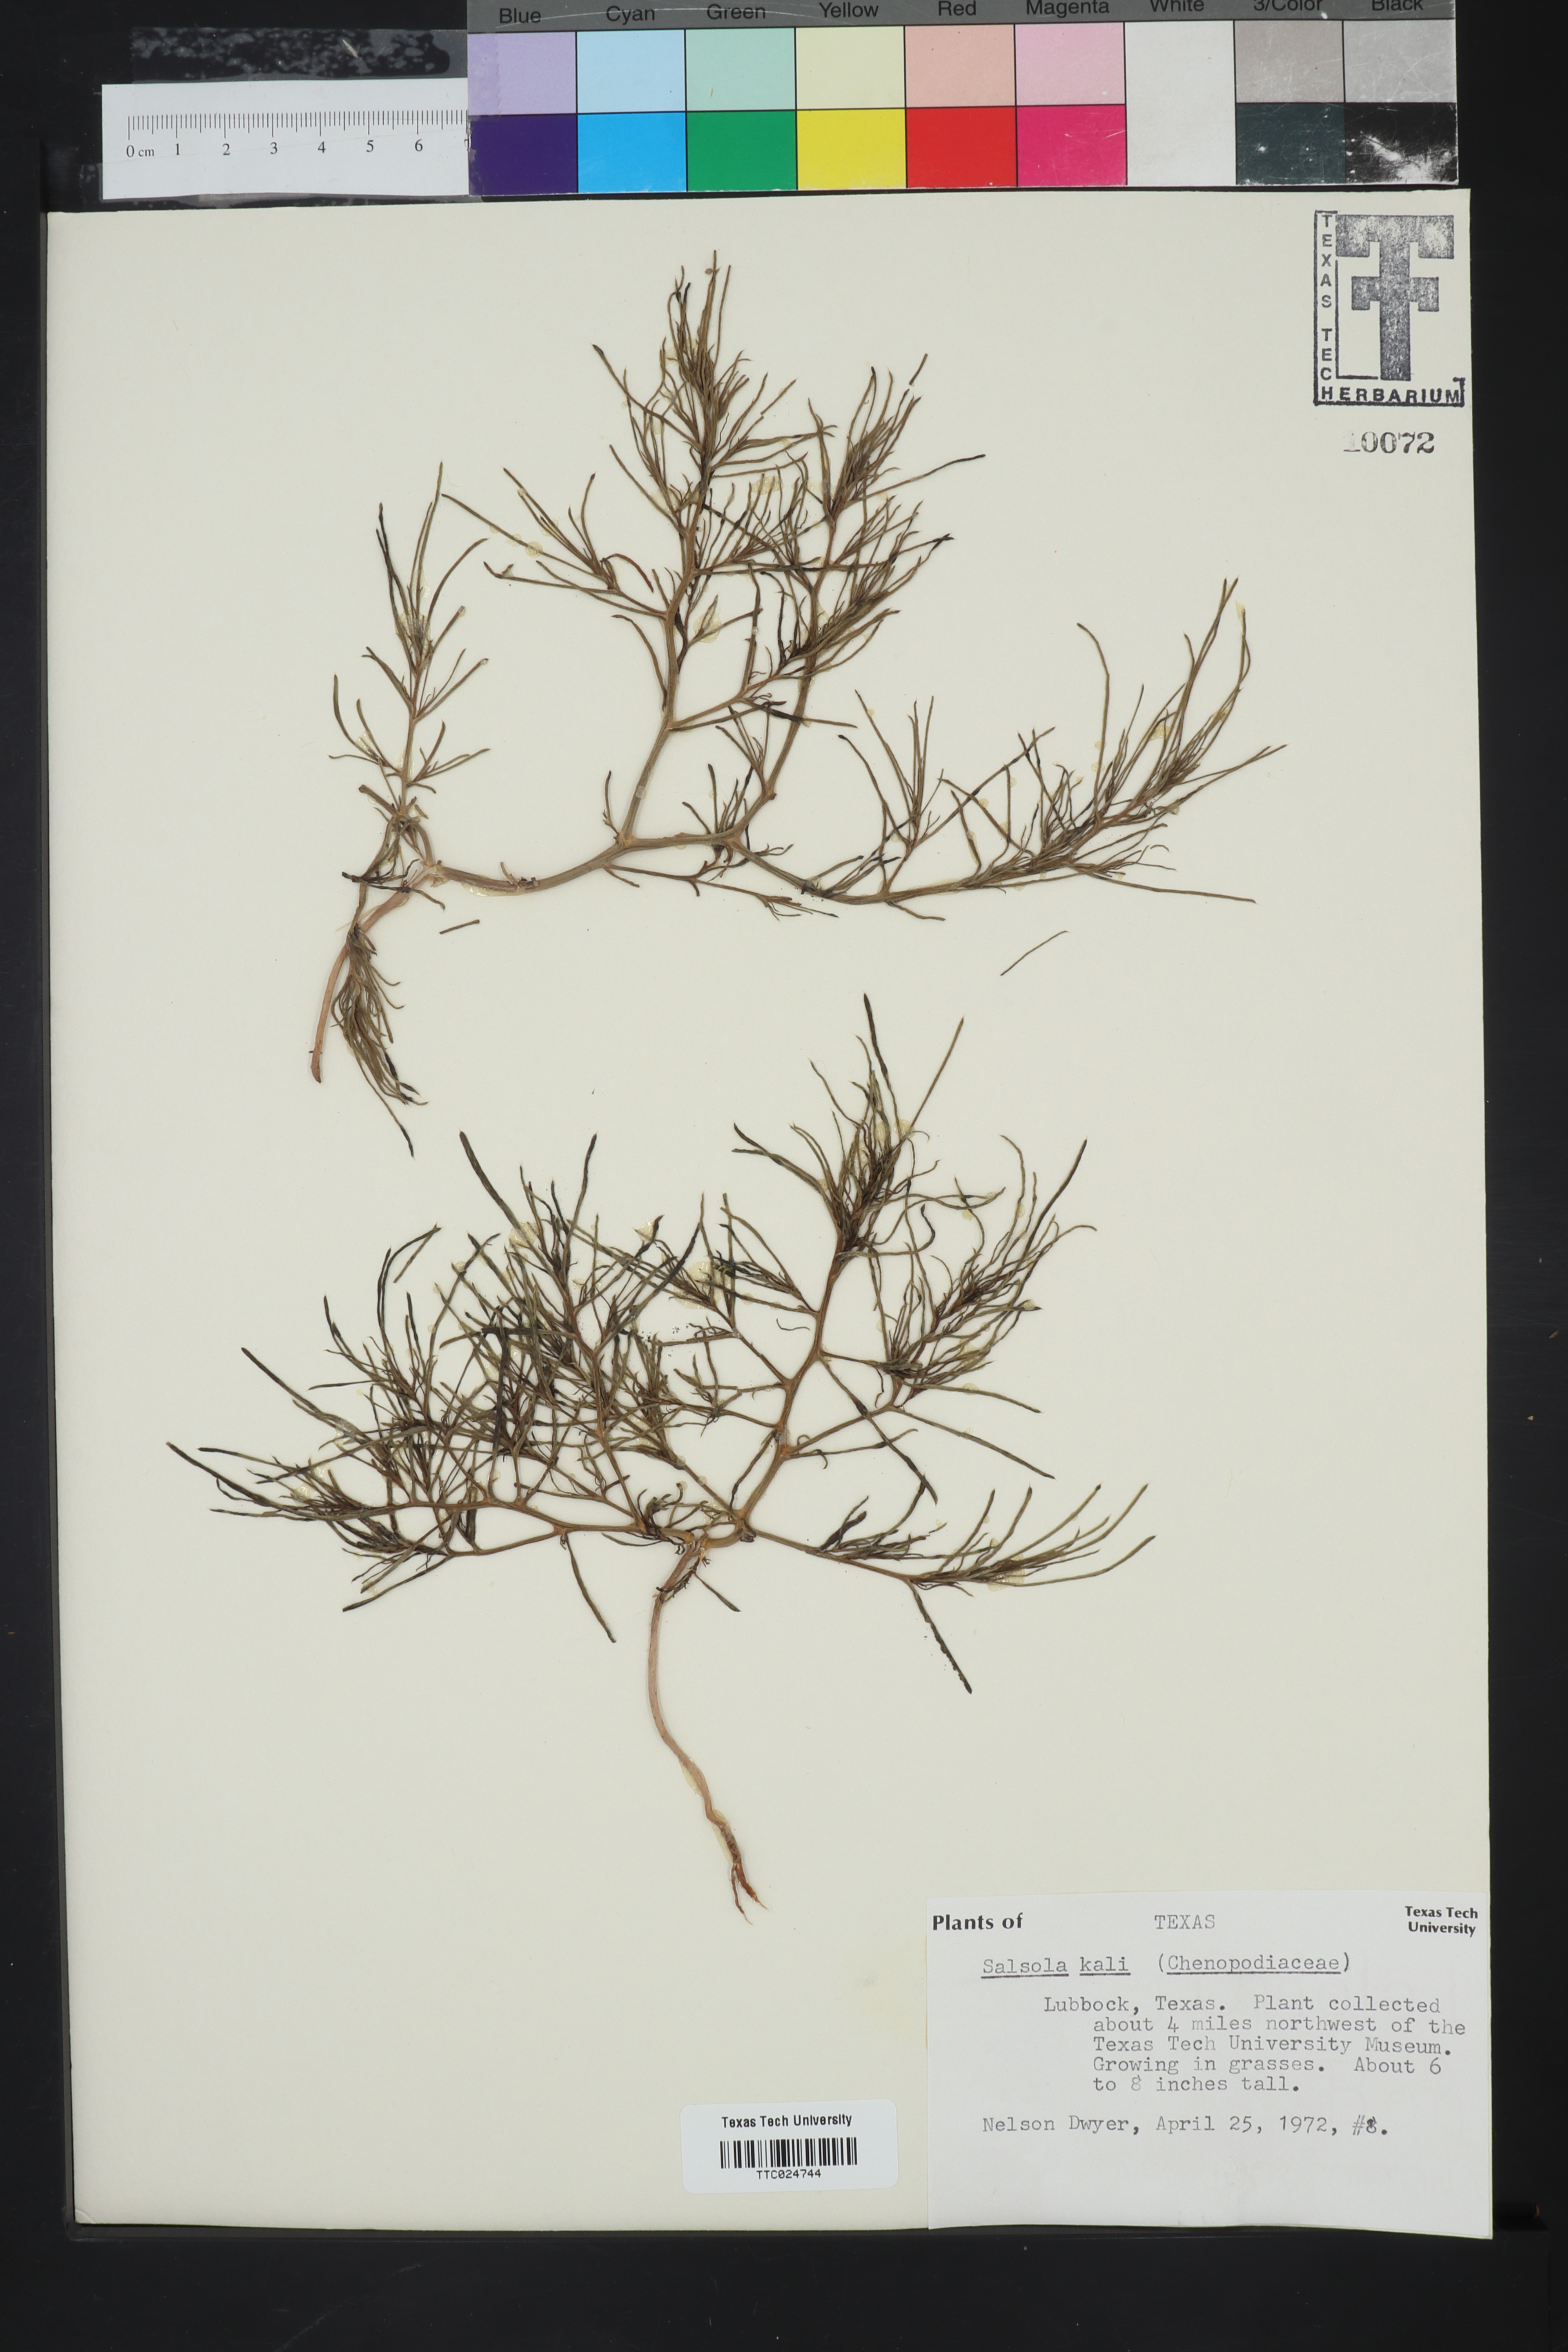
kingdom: Plantae
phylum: Tracheophyta
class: Magnoliopsida
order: Caryophyllales
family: Amaranthaceae
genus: Salsola
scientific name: Salsola kali
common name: Saltwort
